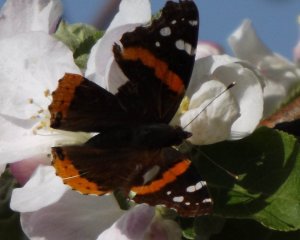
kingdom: Animalia
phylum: Arthropoda
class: Insecta
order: Lepidoptera
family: Nymphalidae
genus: Vanessa
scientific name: Vanessa atalanta
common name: Red Admiral
